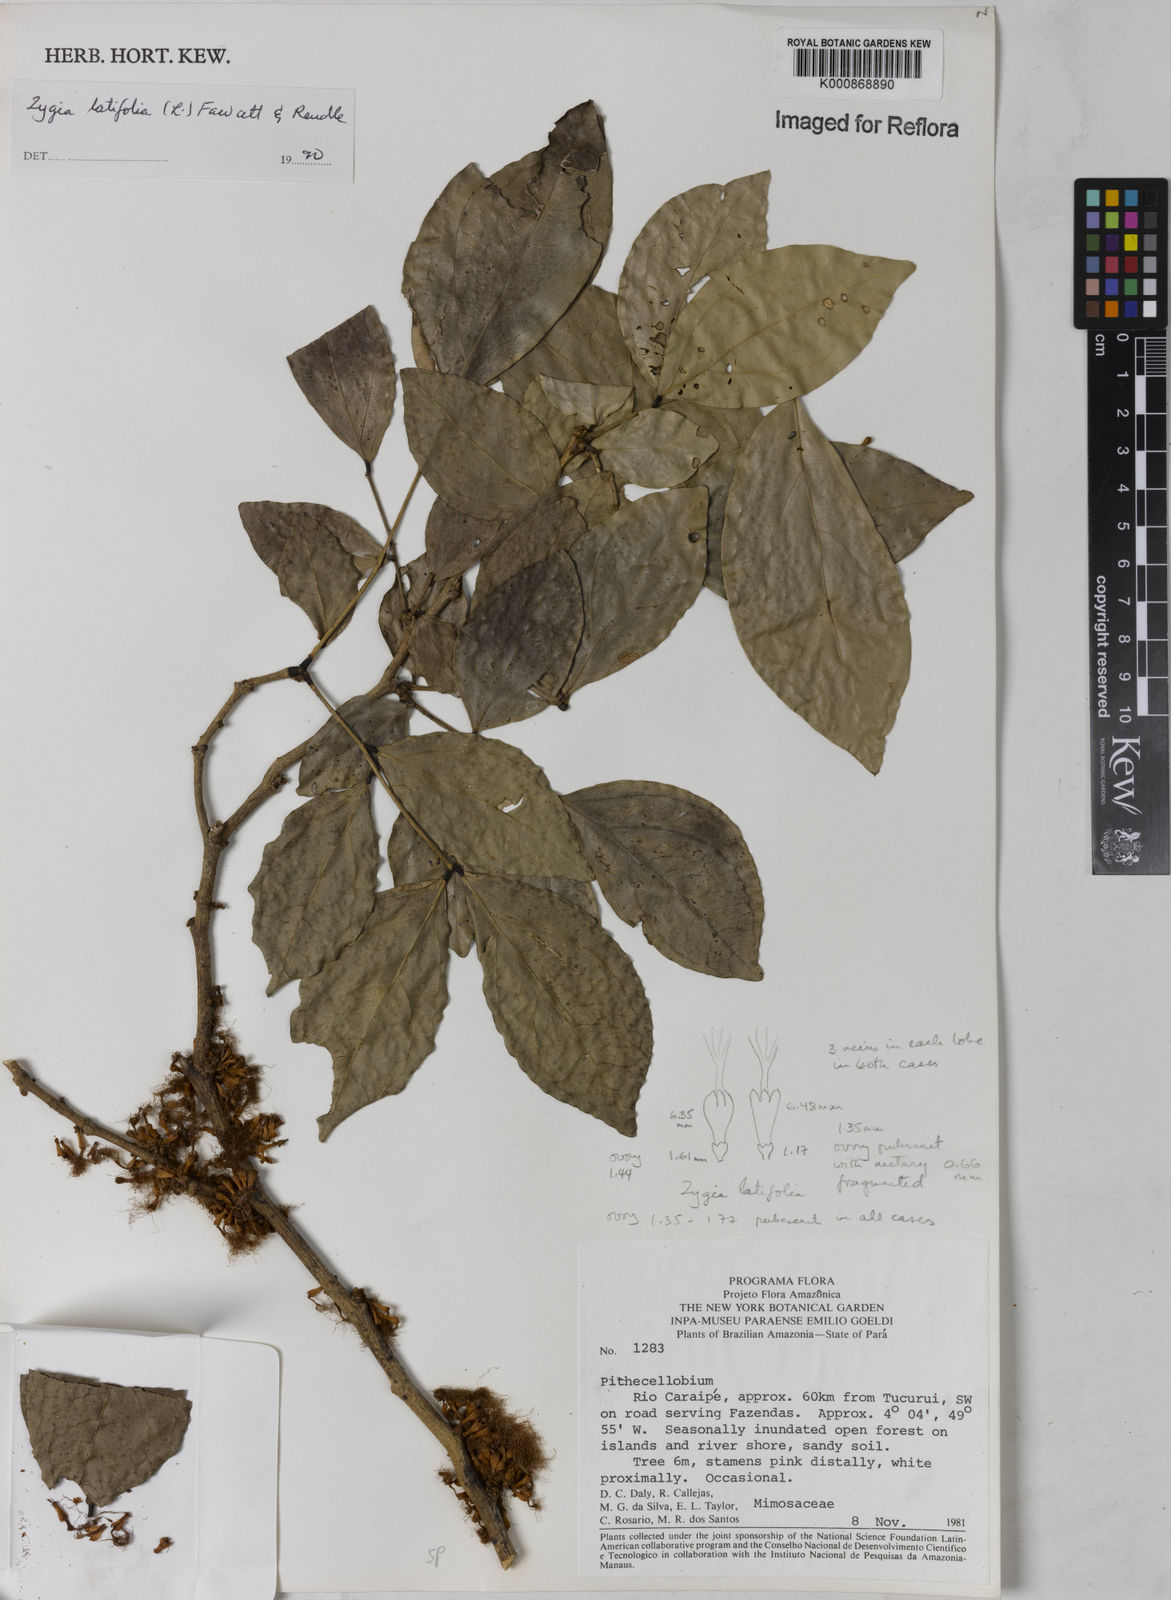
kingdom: Plantae
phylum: Tracheophyta
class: Magnoliopsida
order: Fabales
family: Fabaceae
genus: Zygia
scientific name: Zygia latifolia
